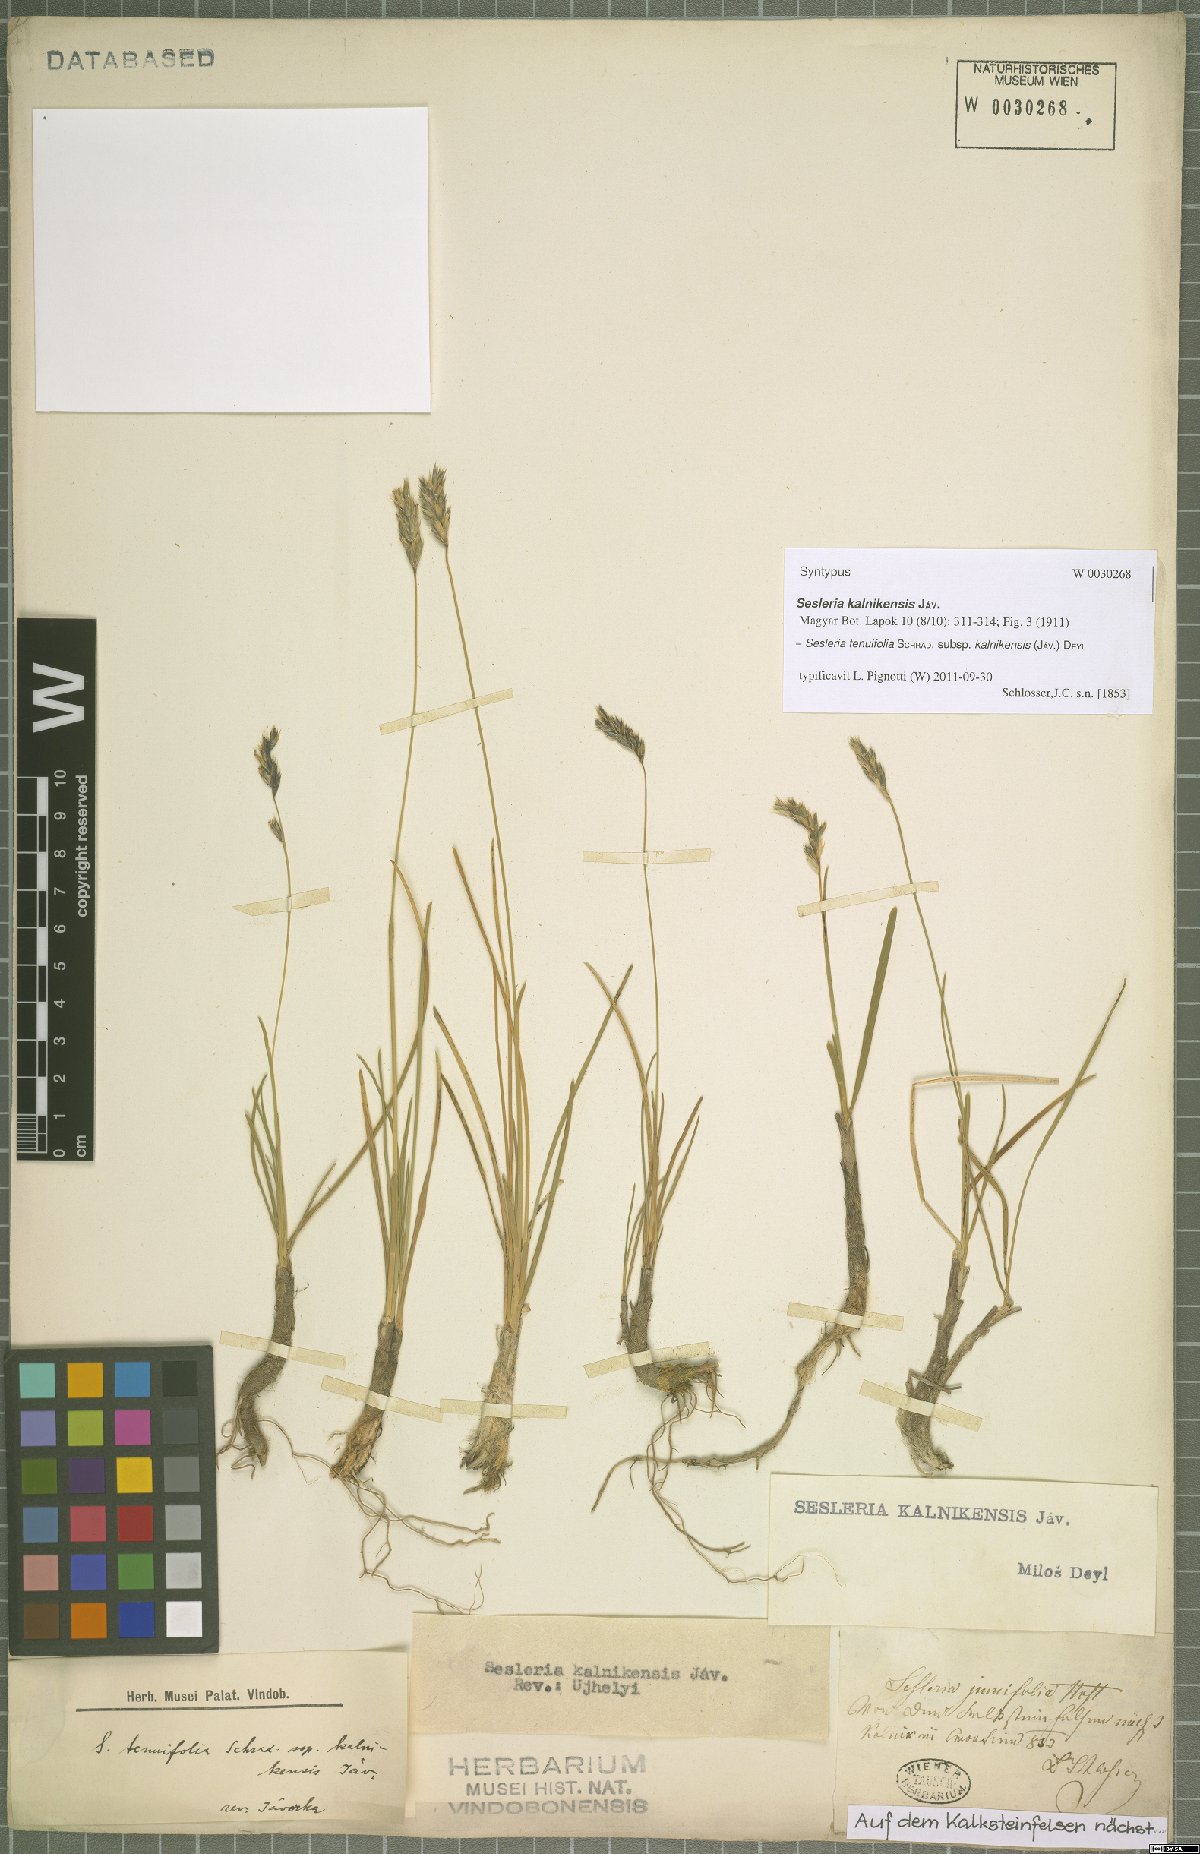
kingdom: Plantae
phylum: Tracheophyta
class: Liliopsida
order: Poales
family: Poaceae
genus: Sesleria
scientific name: Sesleria juncifolia
